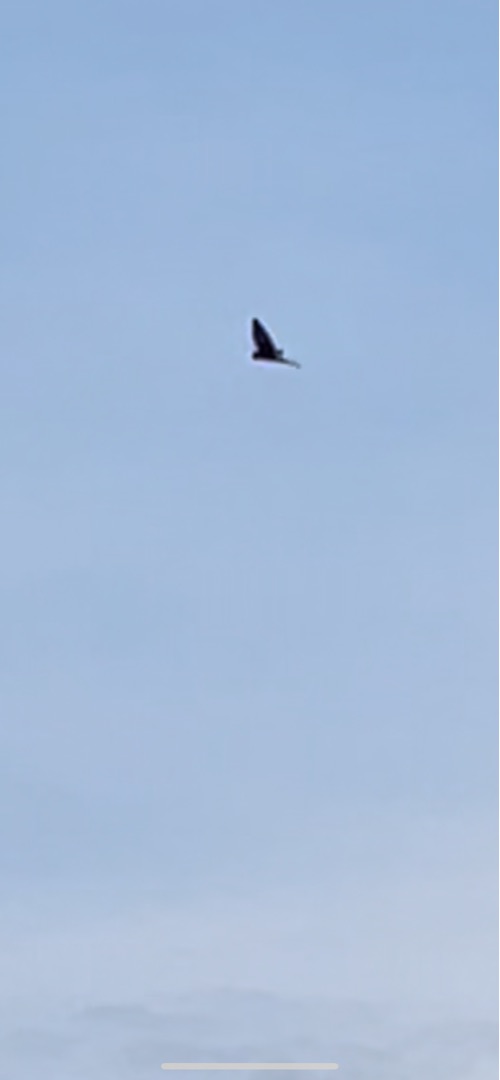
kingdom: Animalia
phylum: Chordata
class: Aves
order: Falconiformes
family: Falconidae
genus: Falco
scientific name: Falco tinnunculus
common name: Tårnfalk
